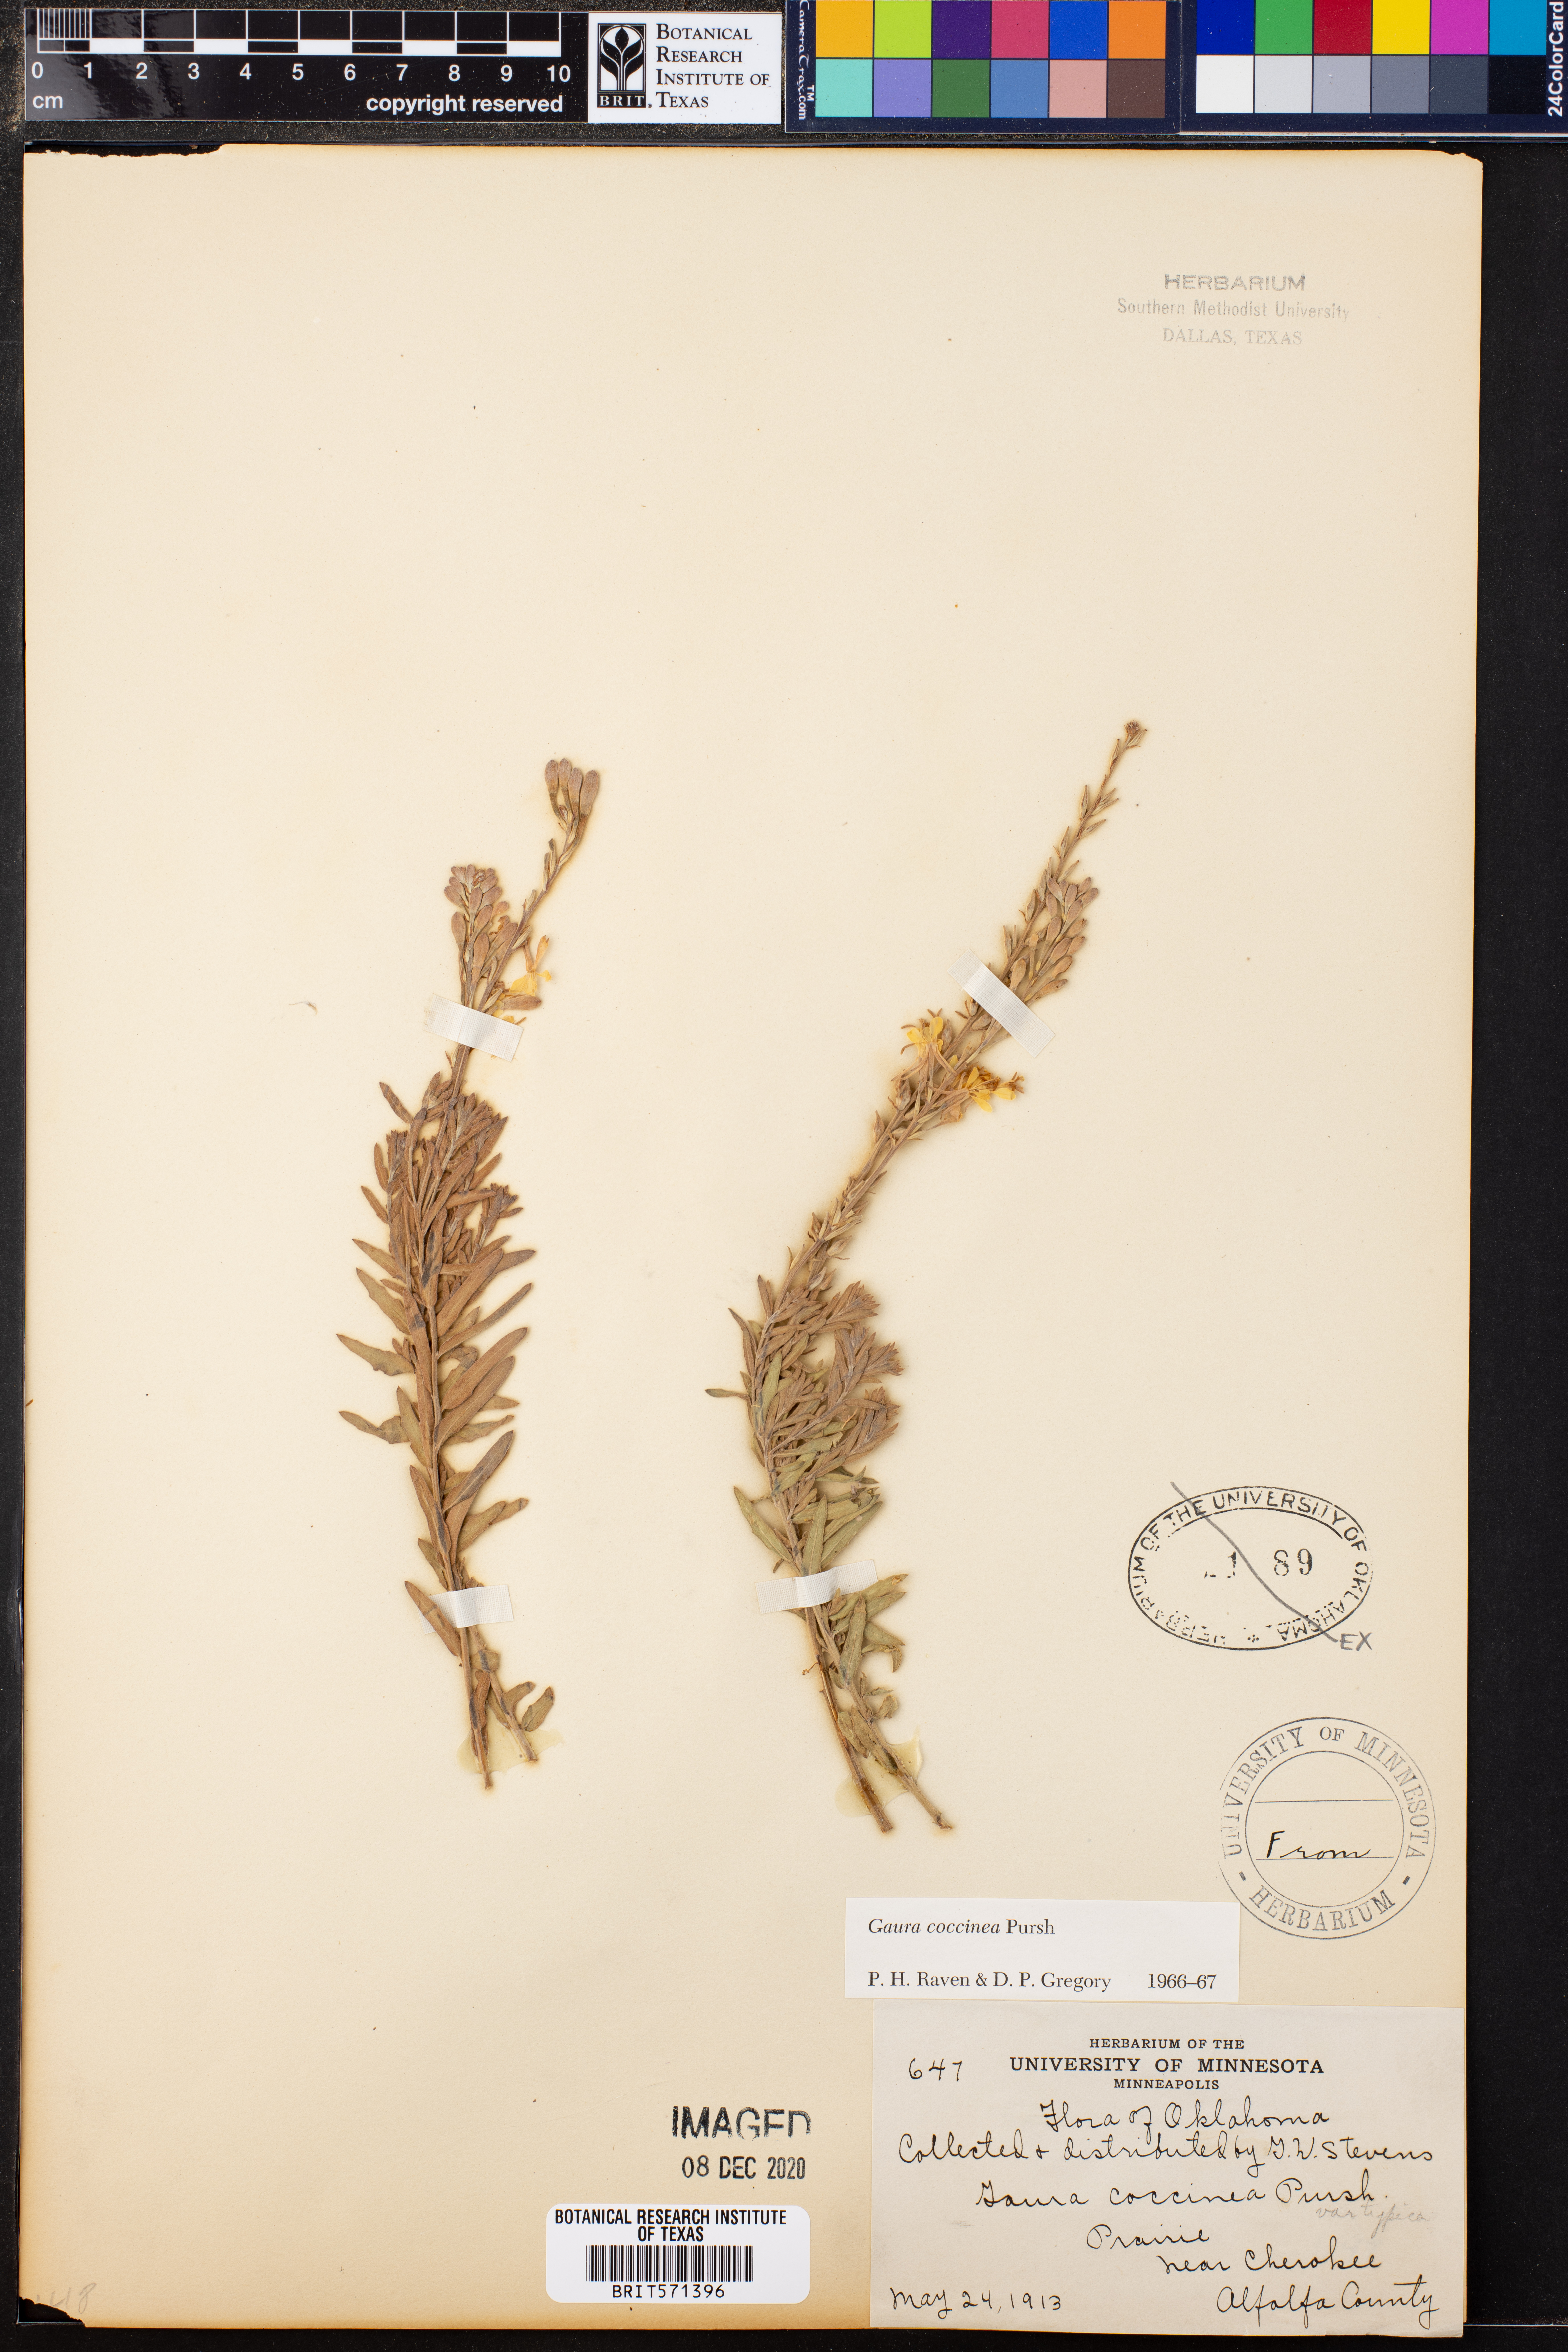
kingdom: Plantae
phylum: Tracheophyta
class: Magnoliopsida
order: Myrtales
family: Onagraceae
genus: Oenothera
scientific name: Oenothera suffrutescens
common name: Scarlet beeblossom
